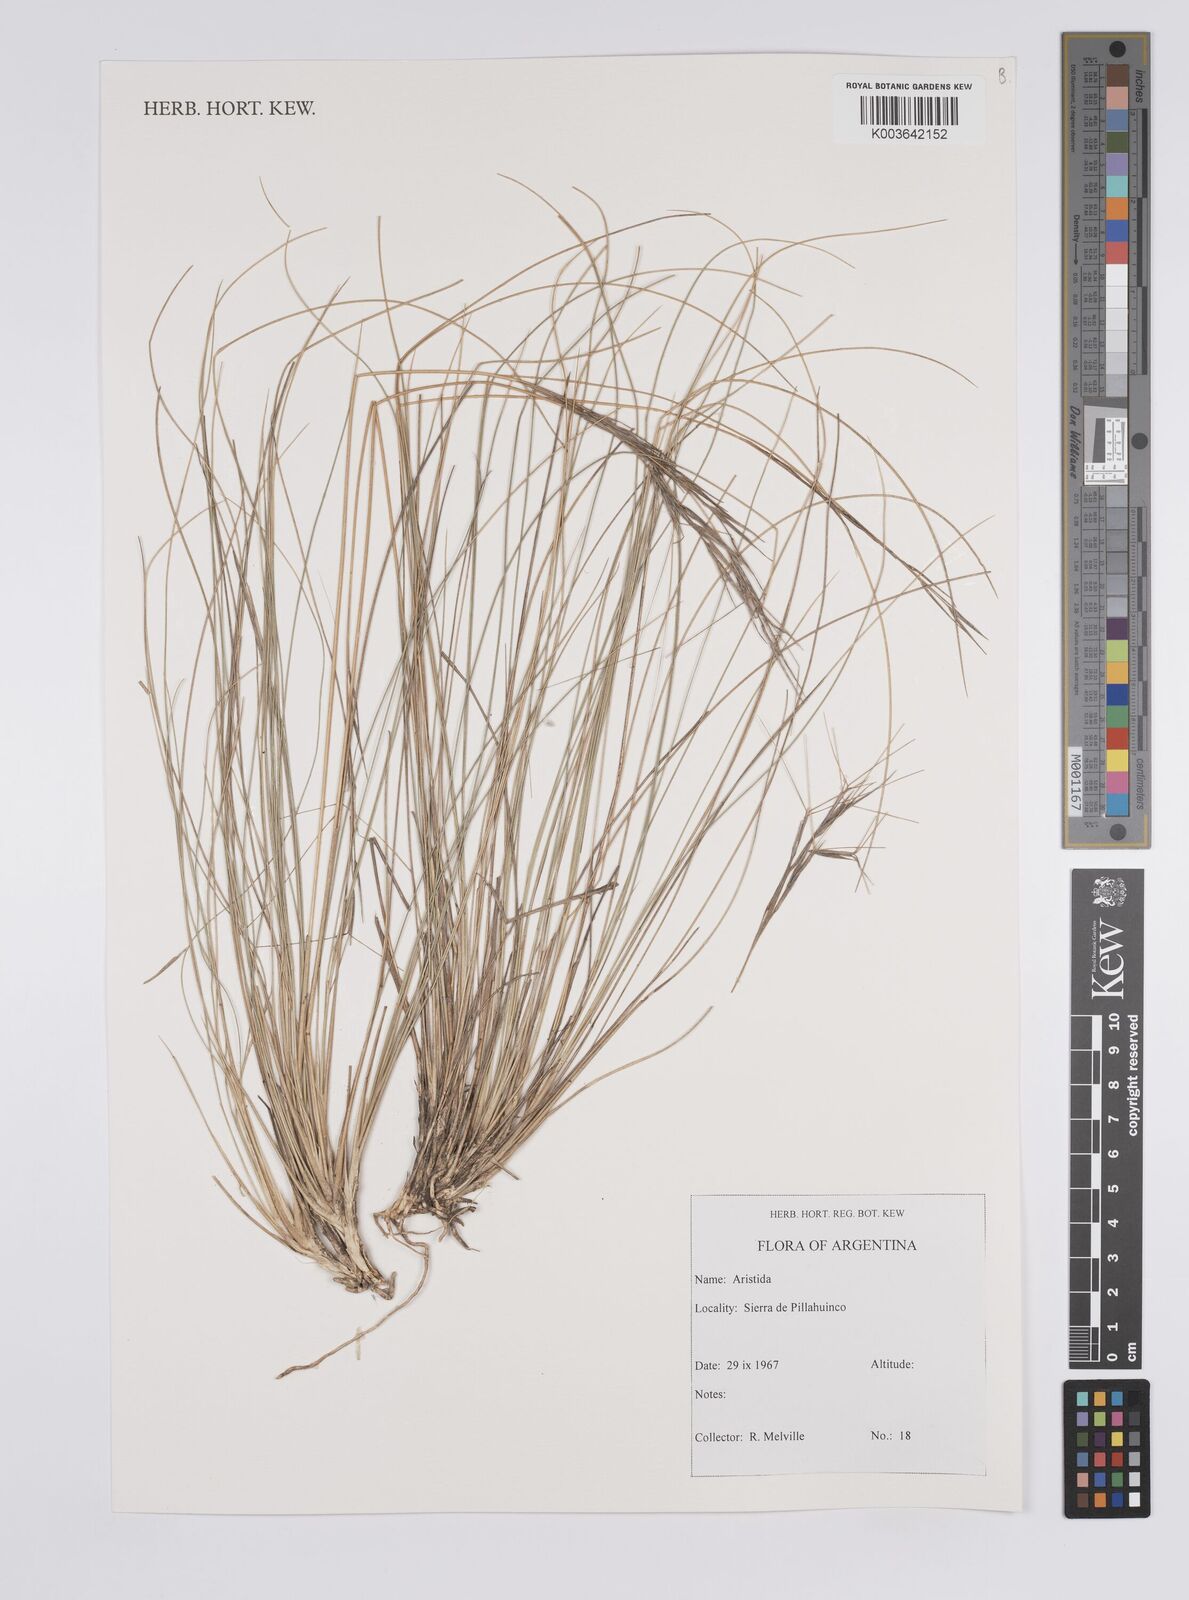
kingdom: Plantae
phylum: Tracheophyta
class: Liliopsida
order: Poales
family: Poaceae
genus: Aristida
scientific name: Aristida
